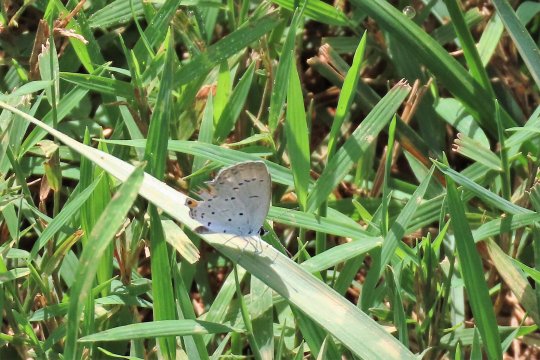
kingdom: Animalia
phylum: Arthropoda
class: Insecta
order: Lepidoptera
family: Lycaenidae
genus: Elkalyce
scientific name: Elkalyce comyntas
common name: Eastern Tailed-Blue
